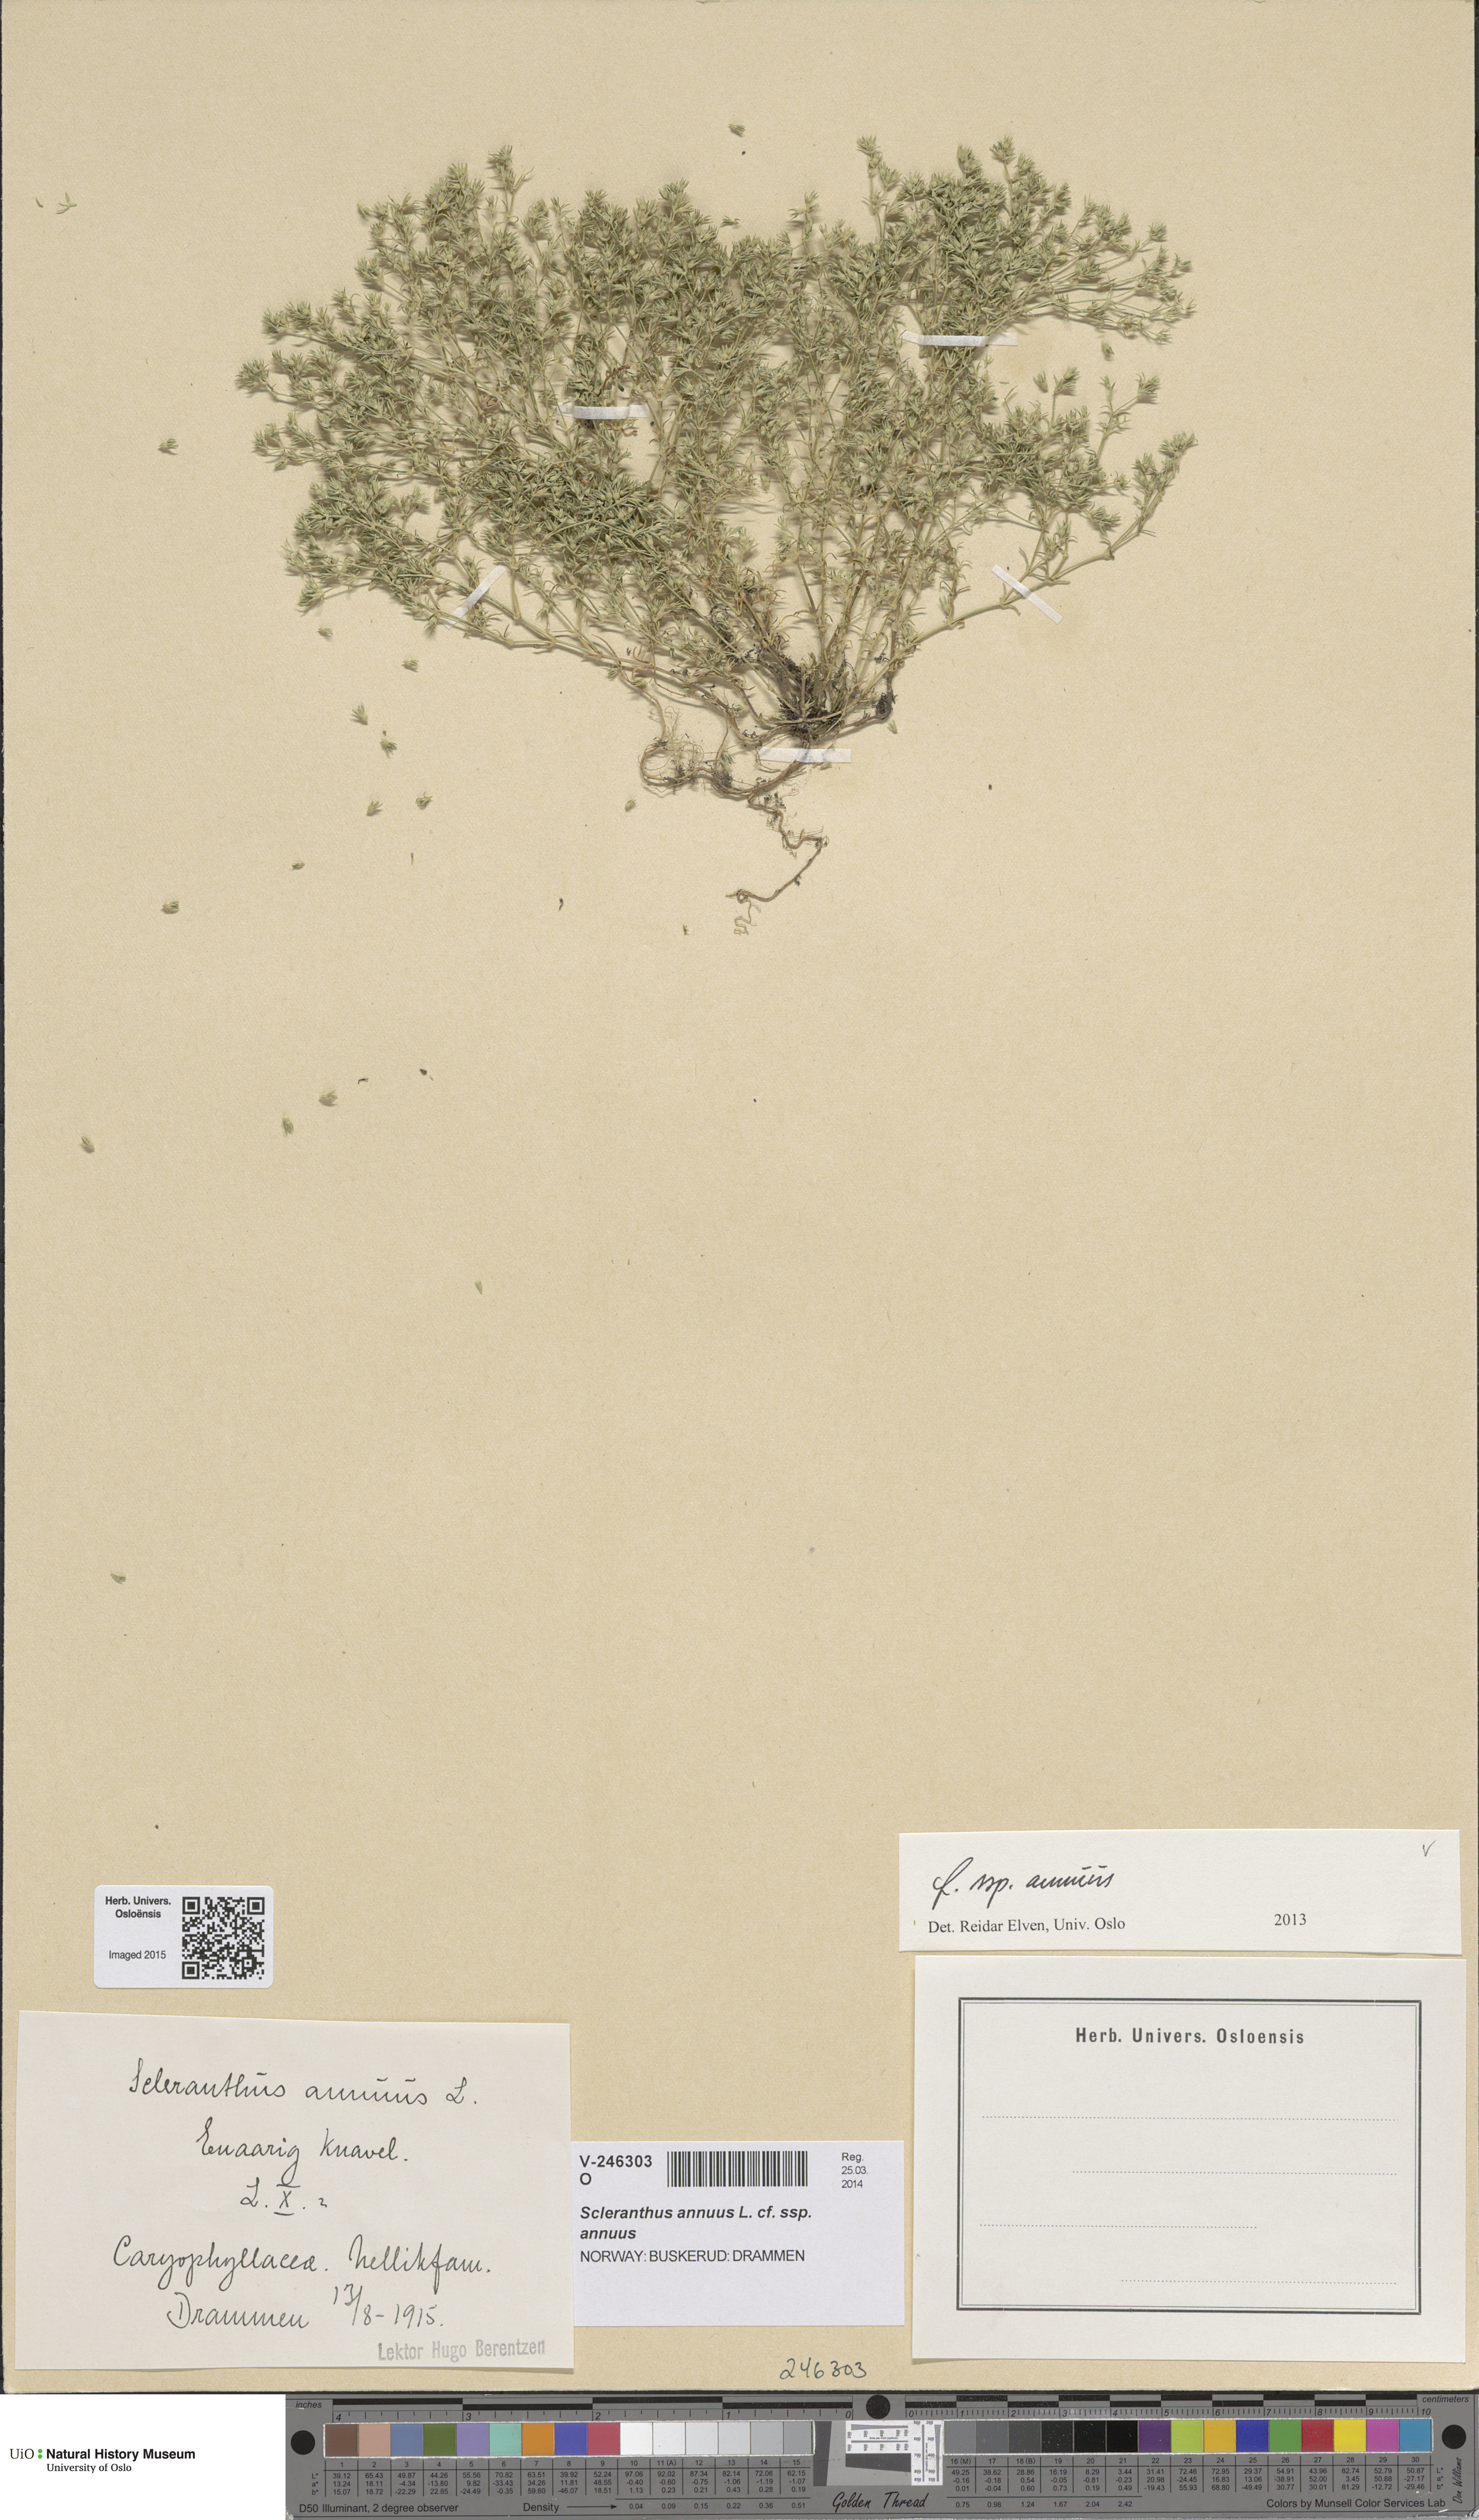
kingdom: Plantae
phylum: Tracheophyta
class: Magnoliopsida
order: Caryophyllales
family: Caryophyllaceae
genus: Scleranthus
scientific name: Scleranthus annuus
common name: Annual knawel
